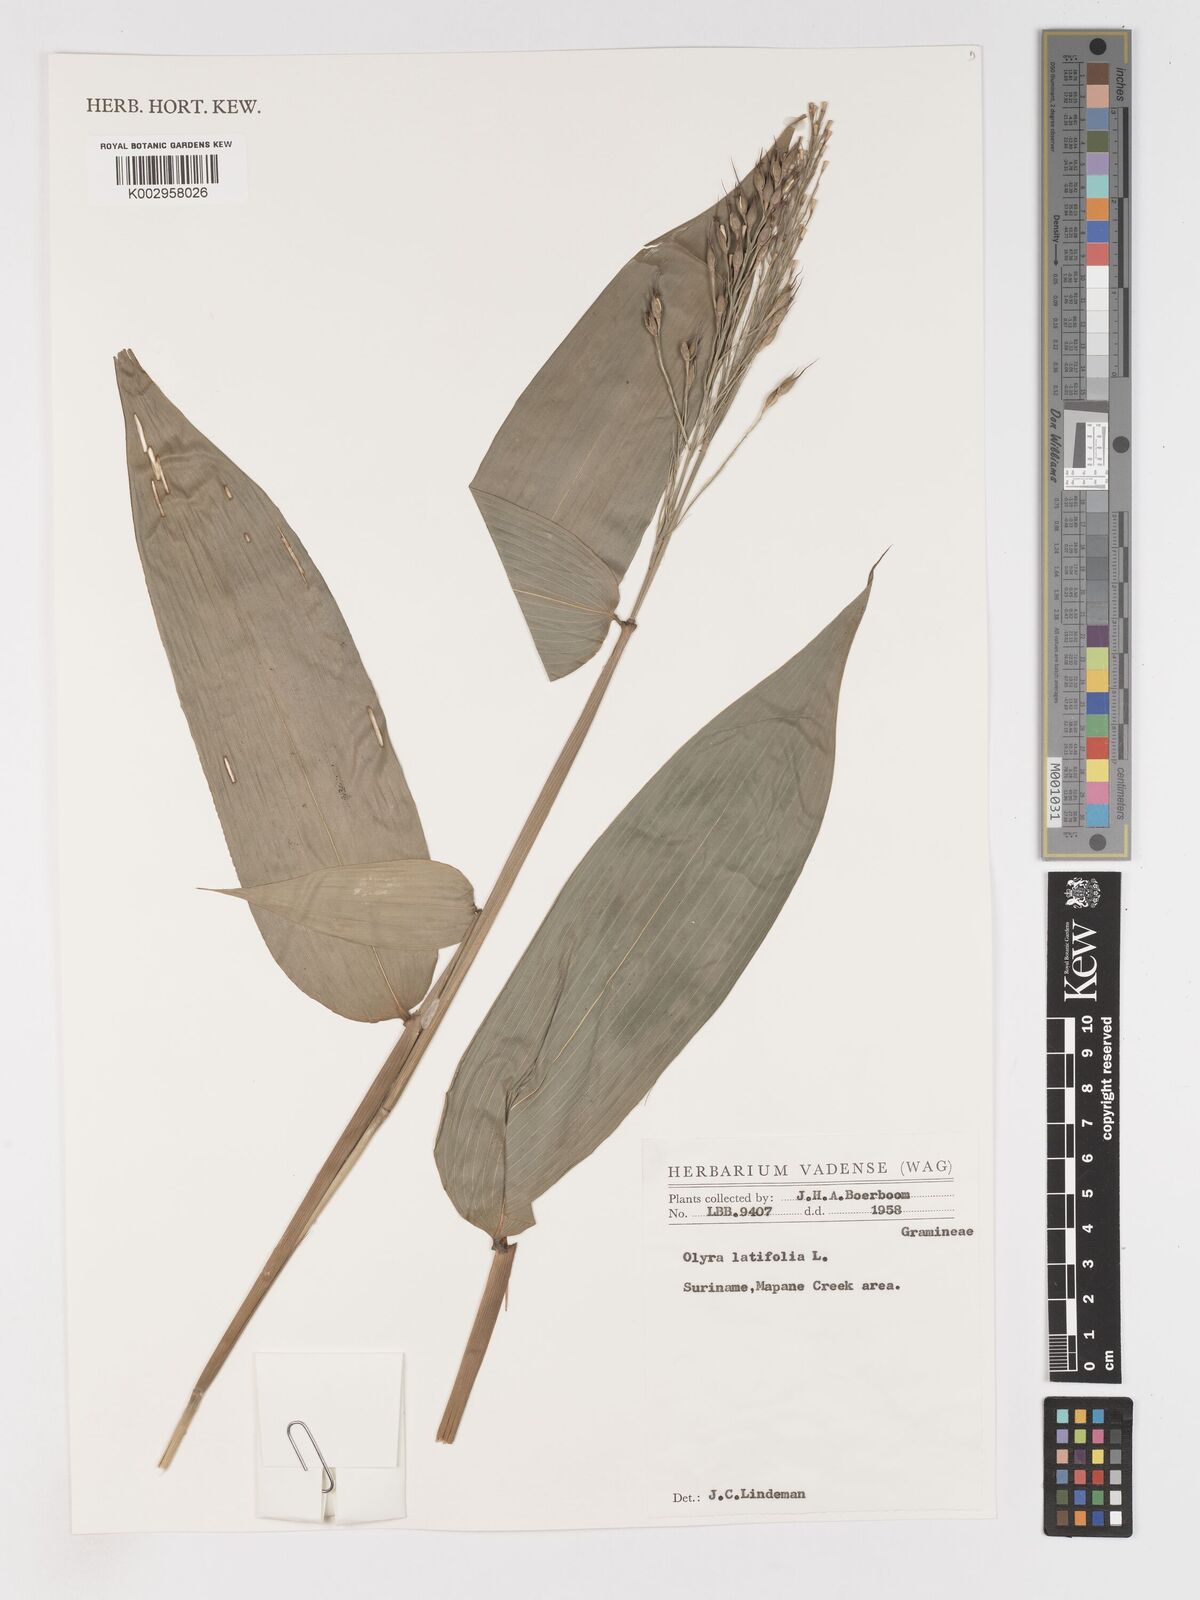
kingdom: Plantae
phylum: Tracheophyta
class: Liliopsida
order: Poales
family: Poaceae
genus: Olyra
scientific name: Olyra latifolia
